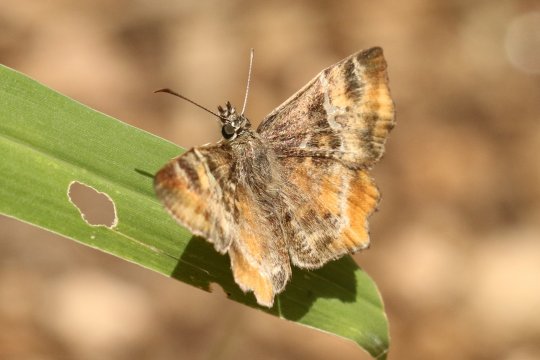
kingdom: Animalia
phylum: Arthropoda
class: Insecta
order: Lepidoptera
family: Hesperiidae
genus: Systasea
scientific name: Systasea pulverulenta
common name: Texas Powdered-Skipper
